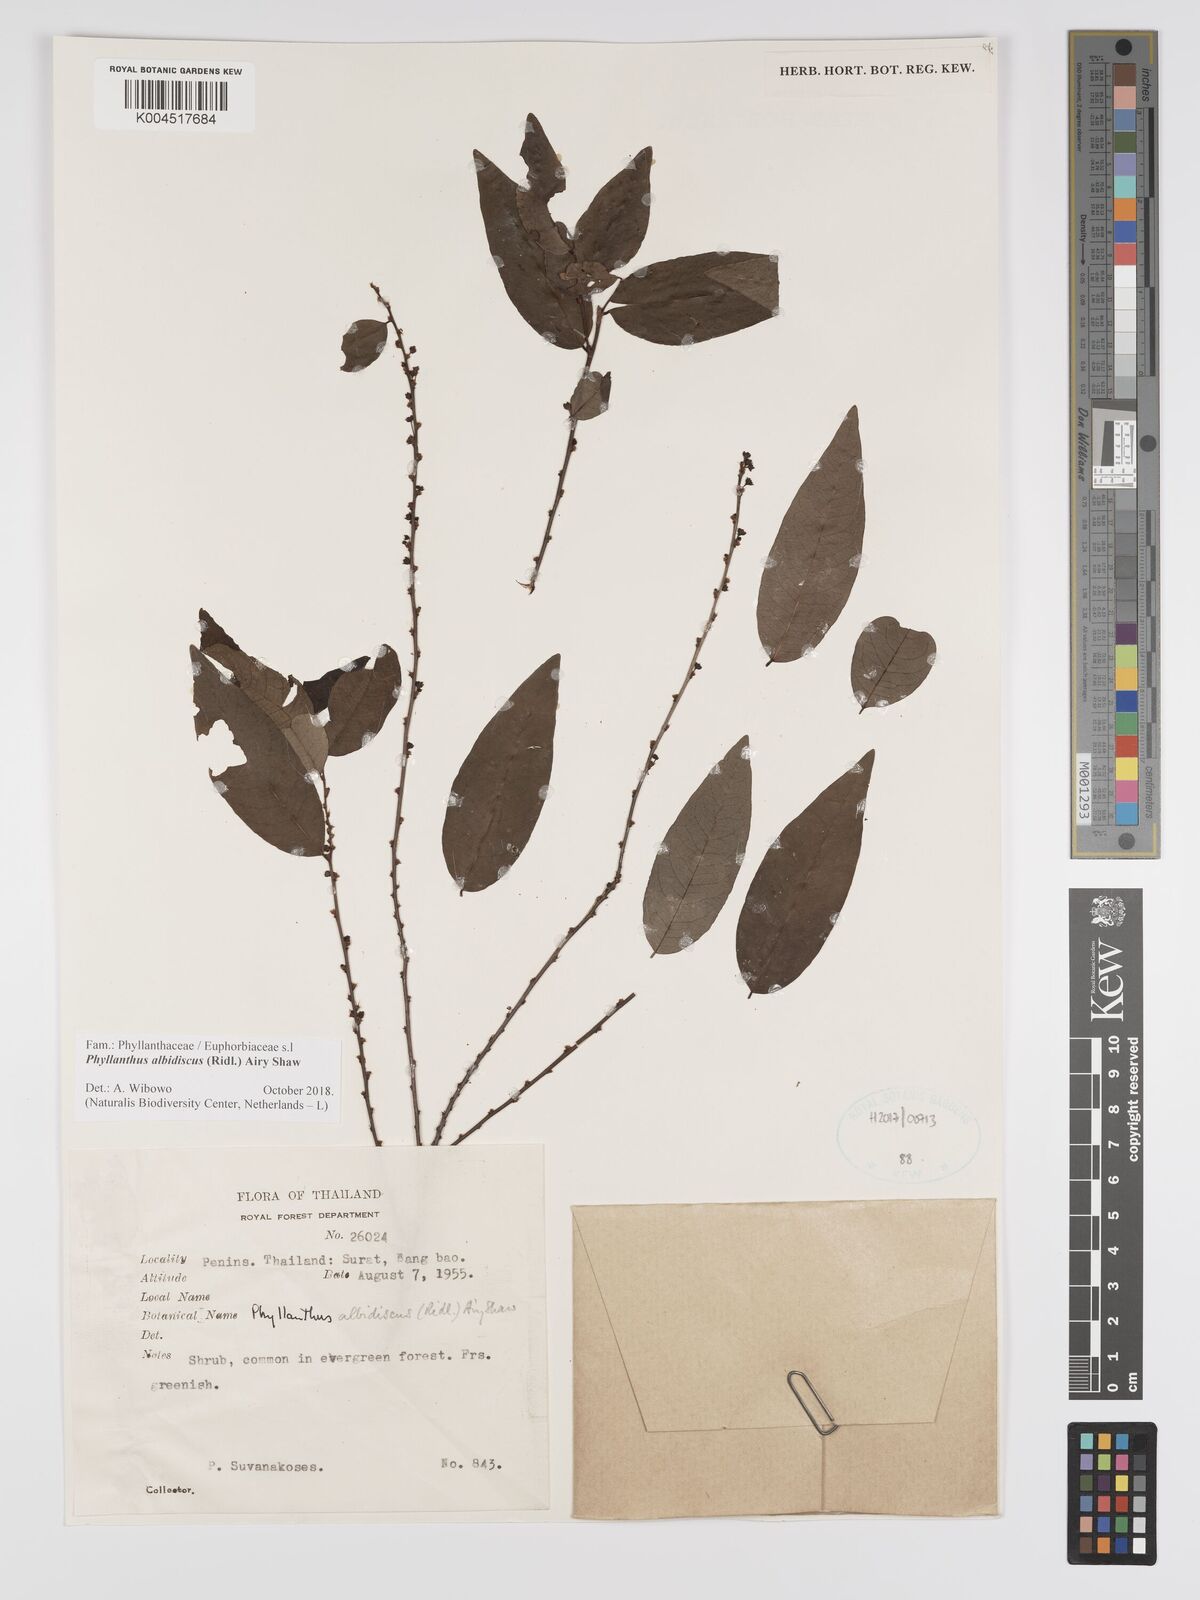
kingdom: Plantae
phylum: Tracheophyta
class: Magnoliopsida
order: Malpighiales
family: Phyllanthaceae
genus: Phyllanthus
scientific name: Phyllanthus albidiscus
